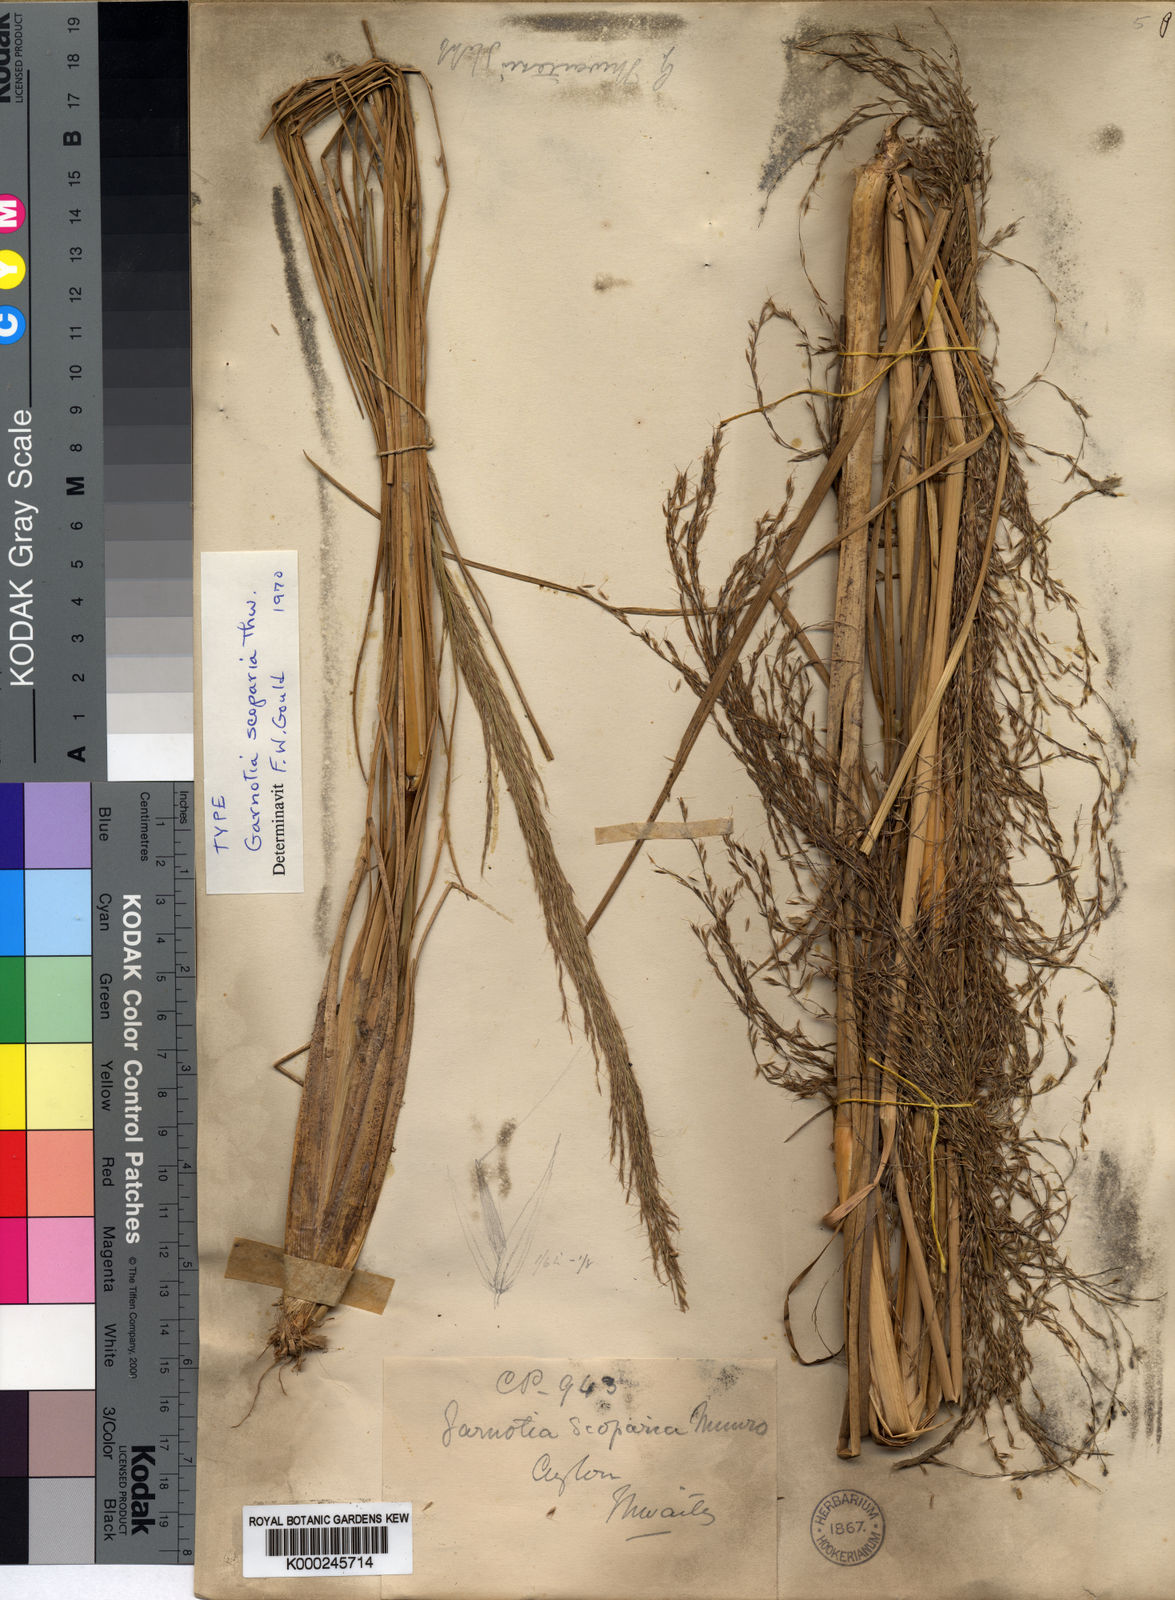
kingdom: Plantae
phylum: Tracheophyta
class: Liliopsida
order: Poales
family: Poaceae
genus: Garnotia
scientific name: Garnotia scoparia
